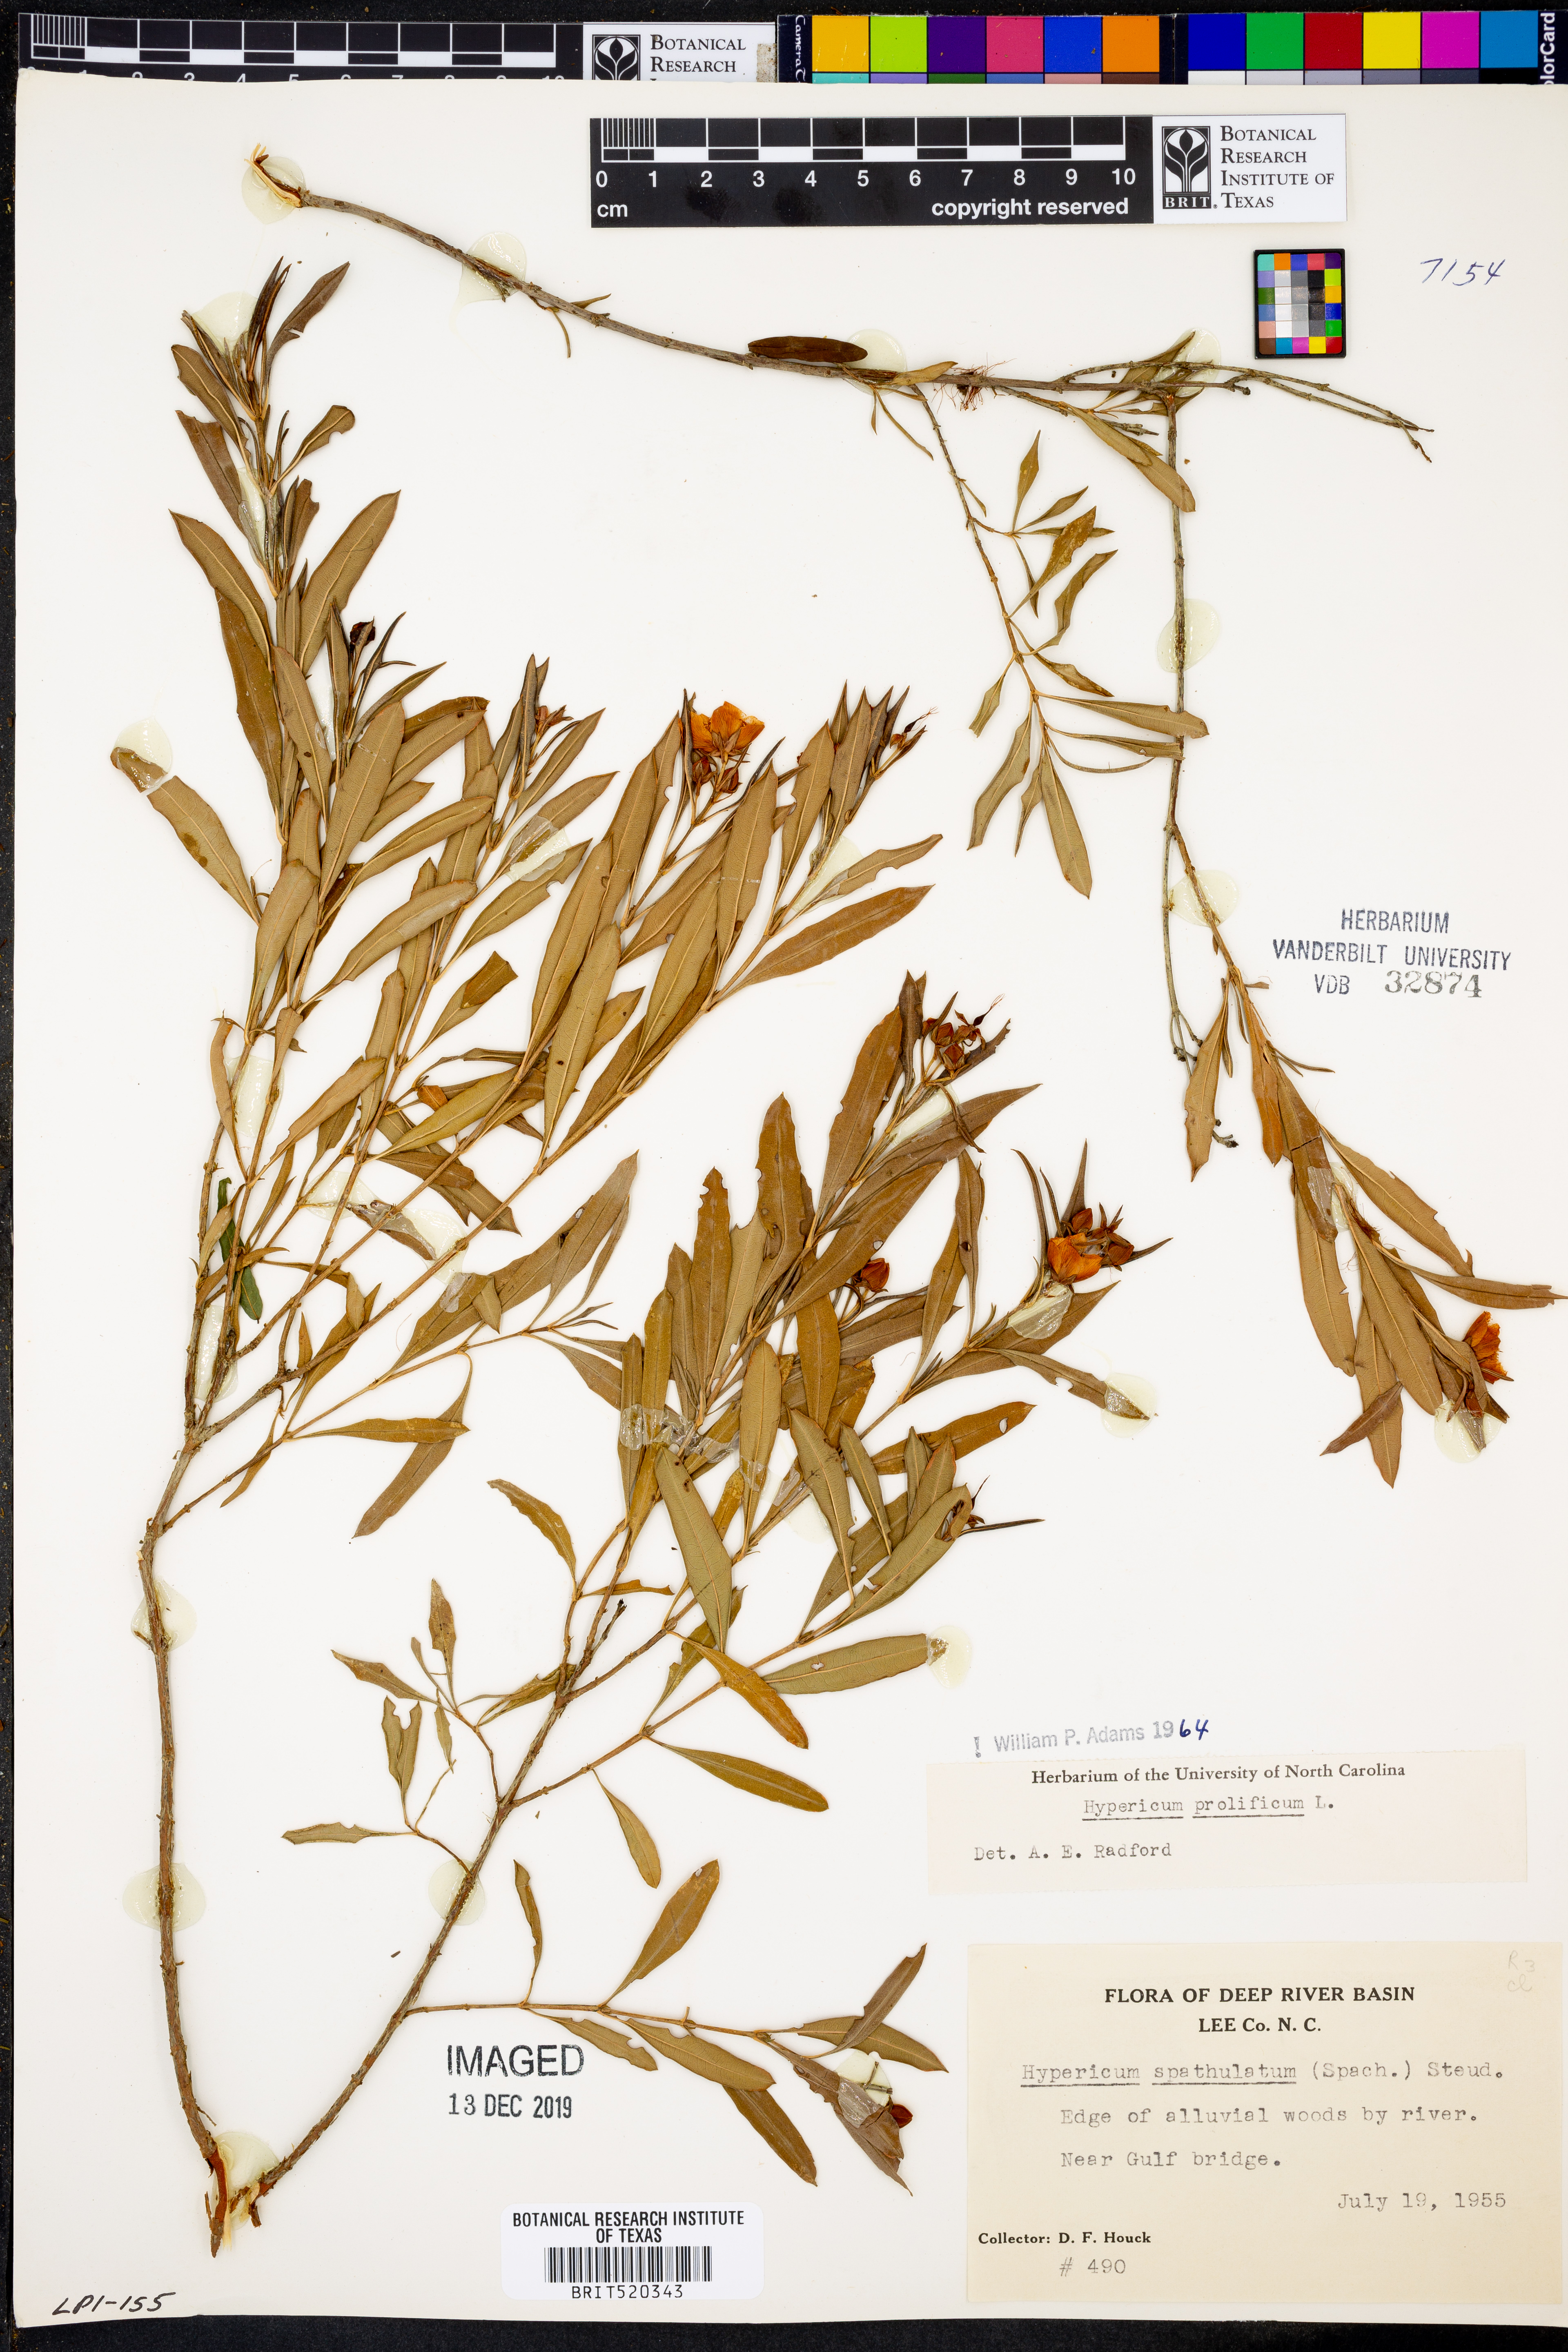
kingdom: Plantae
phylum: Tracheophyta
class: Magnoliopsida
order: Malpighiales
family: Hypericaceae
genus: Hypericum
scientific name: Hypericum prolificum
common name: Shrubby st. john's-wort
